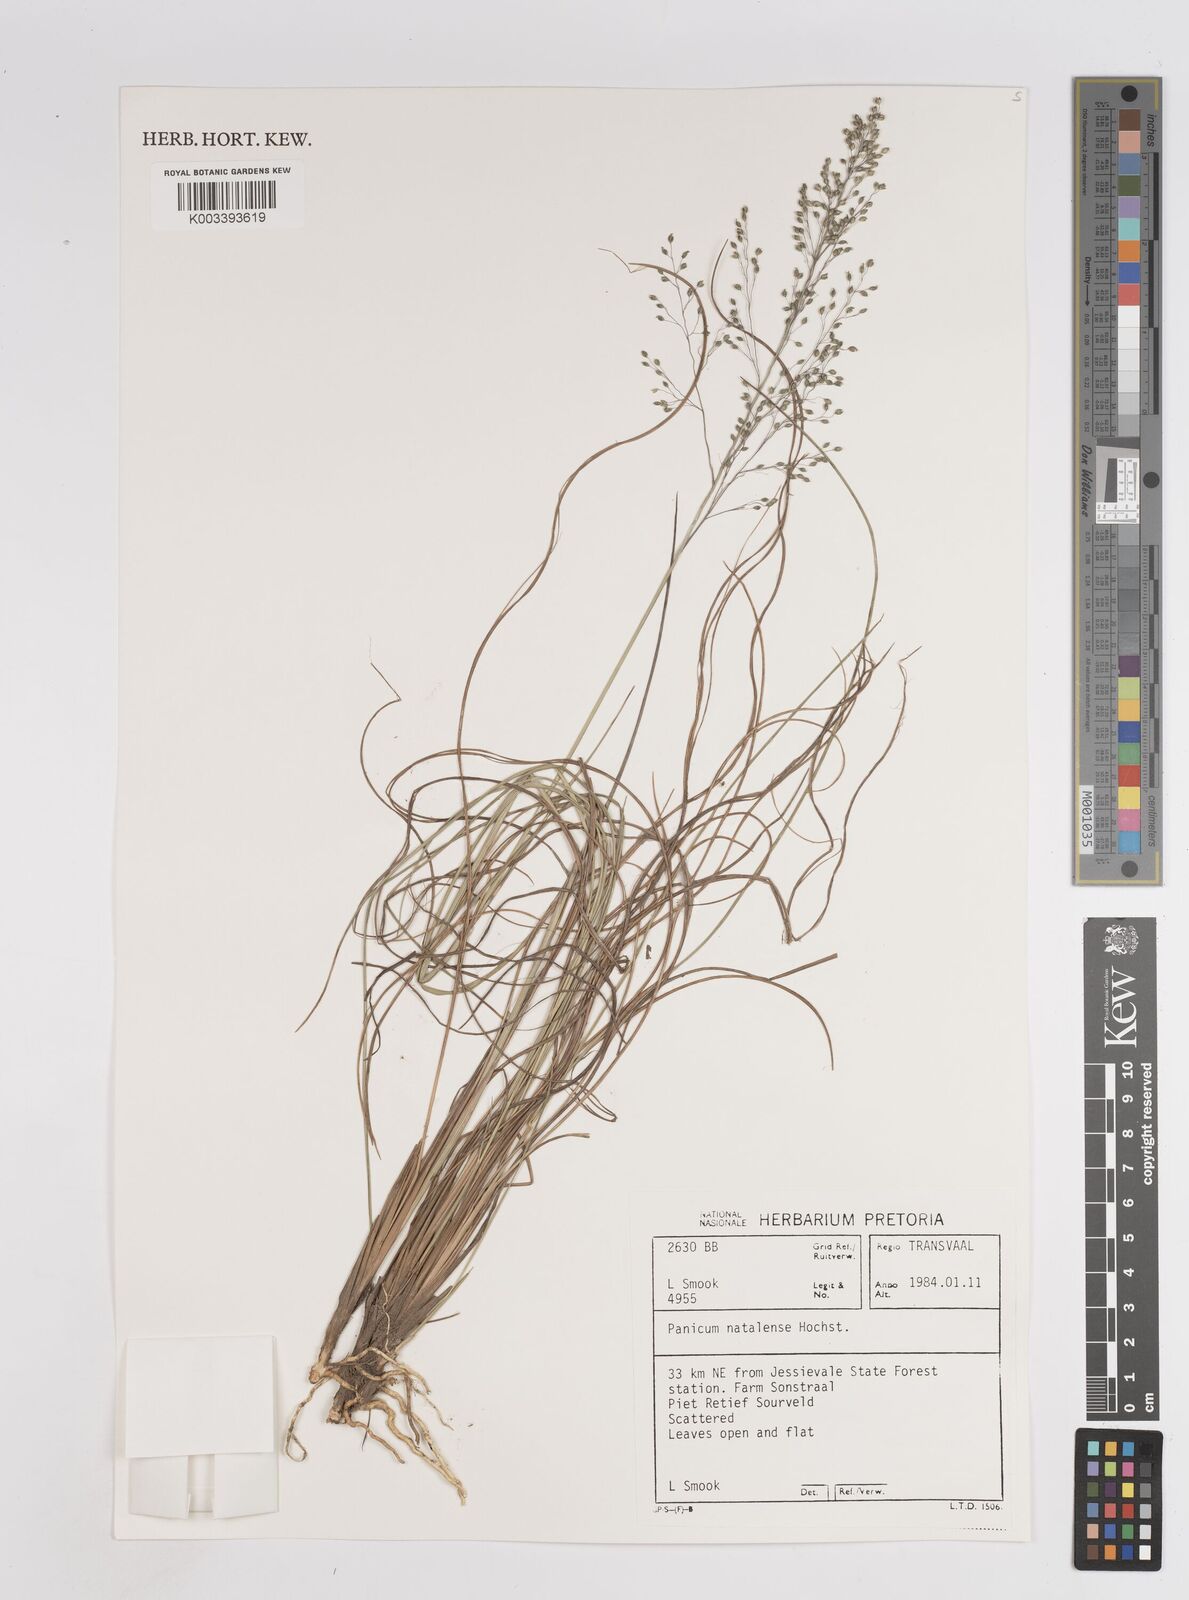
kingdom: Plantae
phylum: Tracheophyta
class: Liliopsida
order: Poales
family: Poaceae
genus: Trichanthecium
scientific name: Trichanthecium natalense
